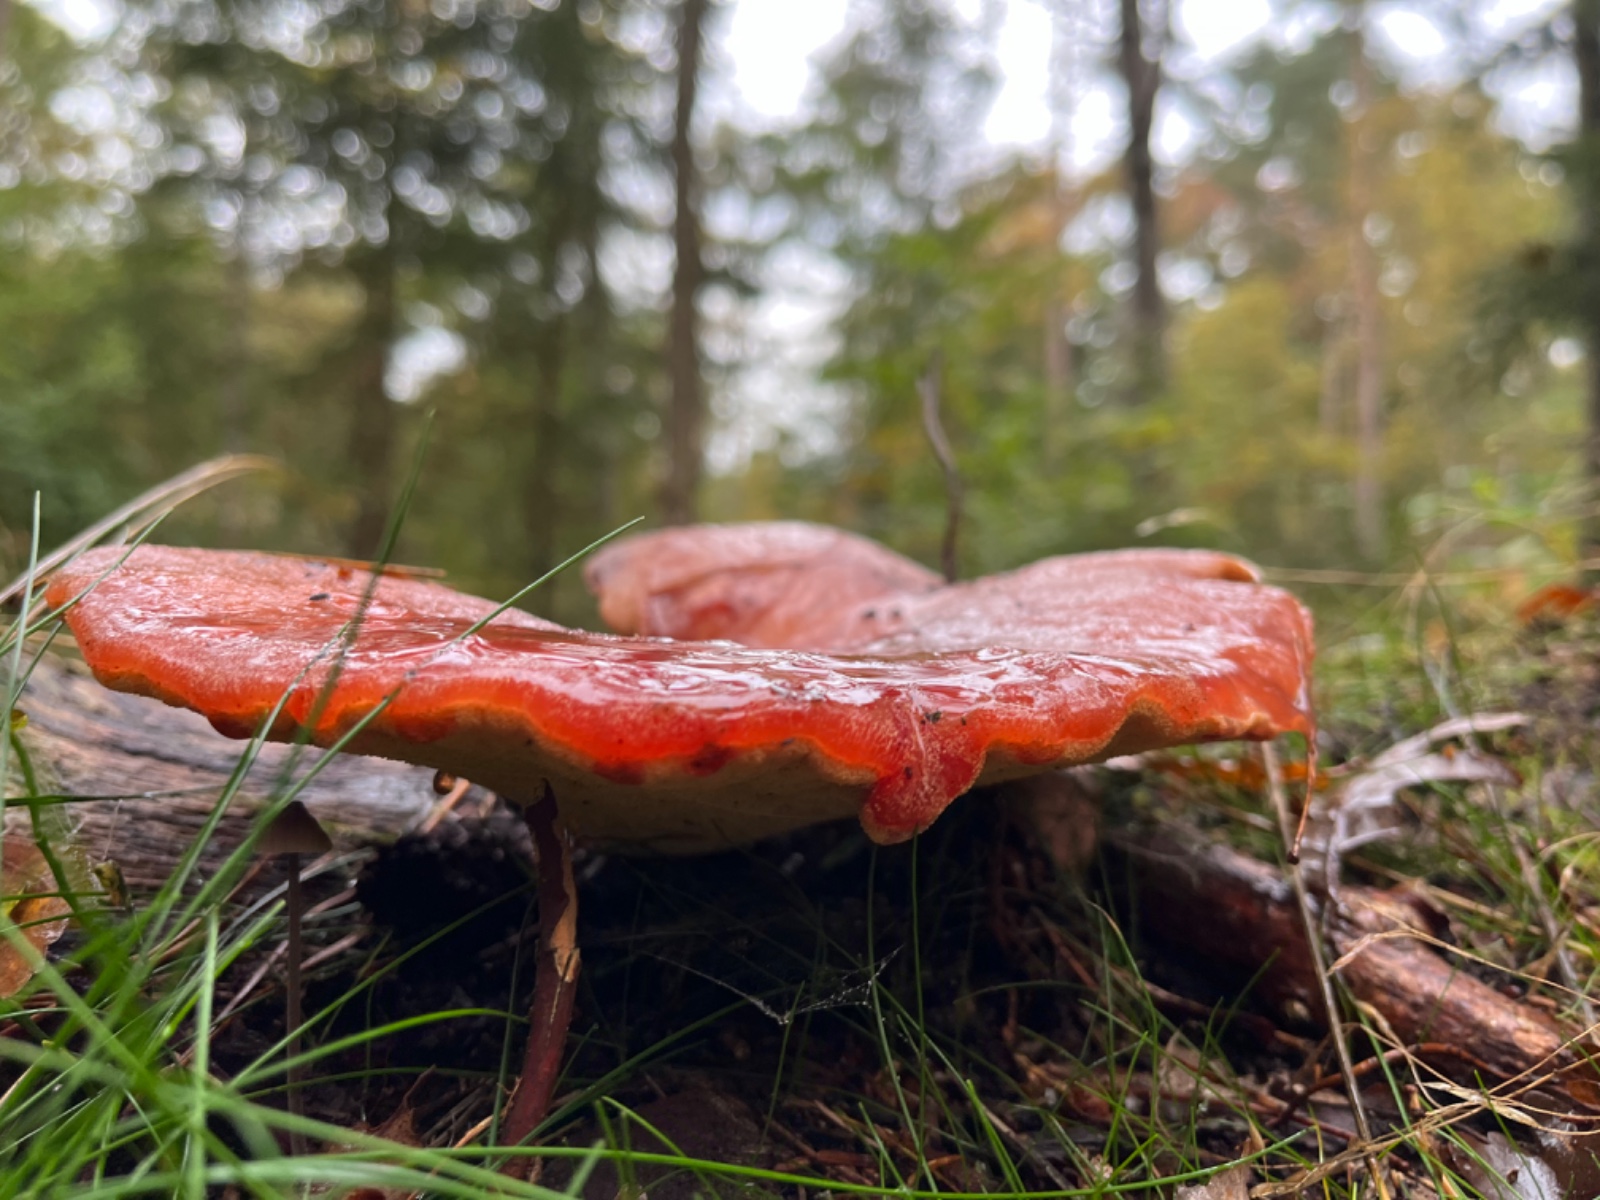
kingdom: Fungi
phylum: Basidiomycota
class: Agaricomycetes
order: Agaricales
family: Fistulinaceae
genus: Fistulina
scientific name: Fistulina hepatica
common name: oksetunge
